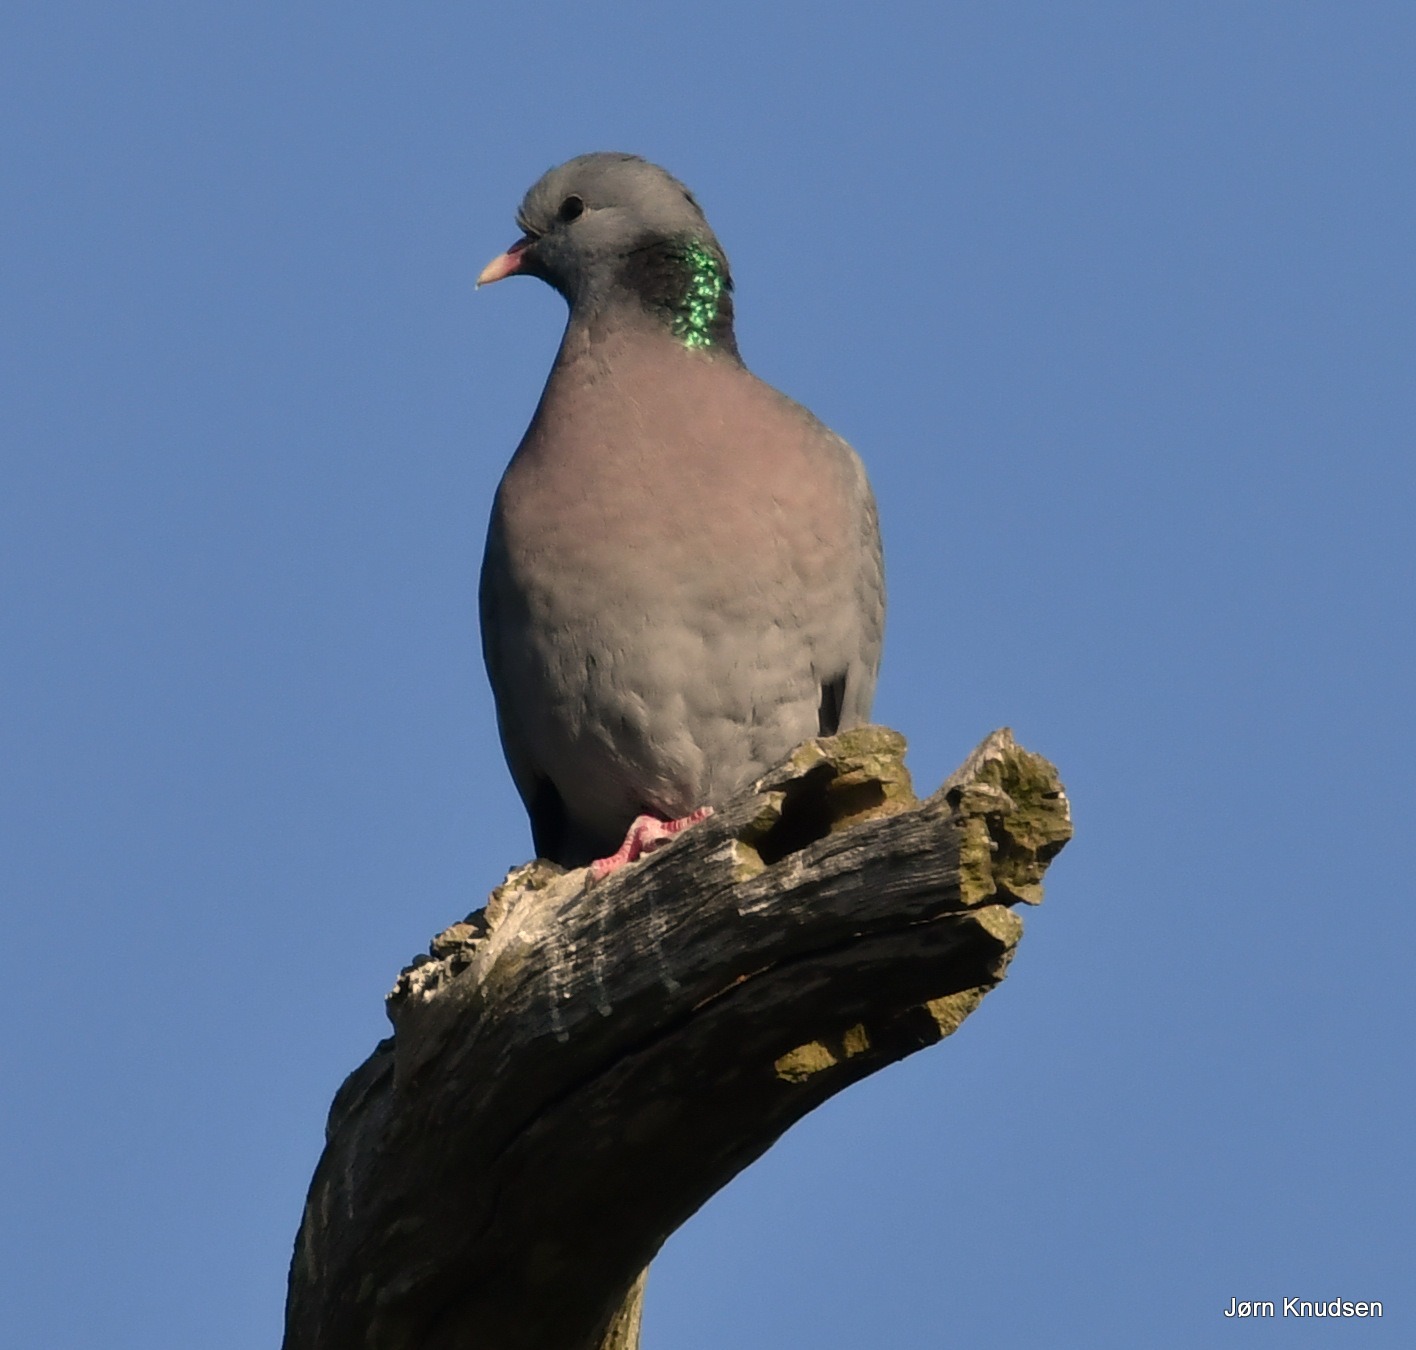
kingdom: Animalia
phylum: Chordata
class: Aves
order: Columbiformes
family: Columbidae
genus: Columba
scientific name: Columba oenas
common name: Huldue
